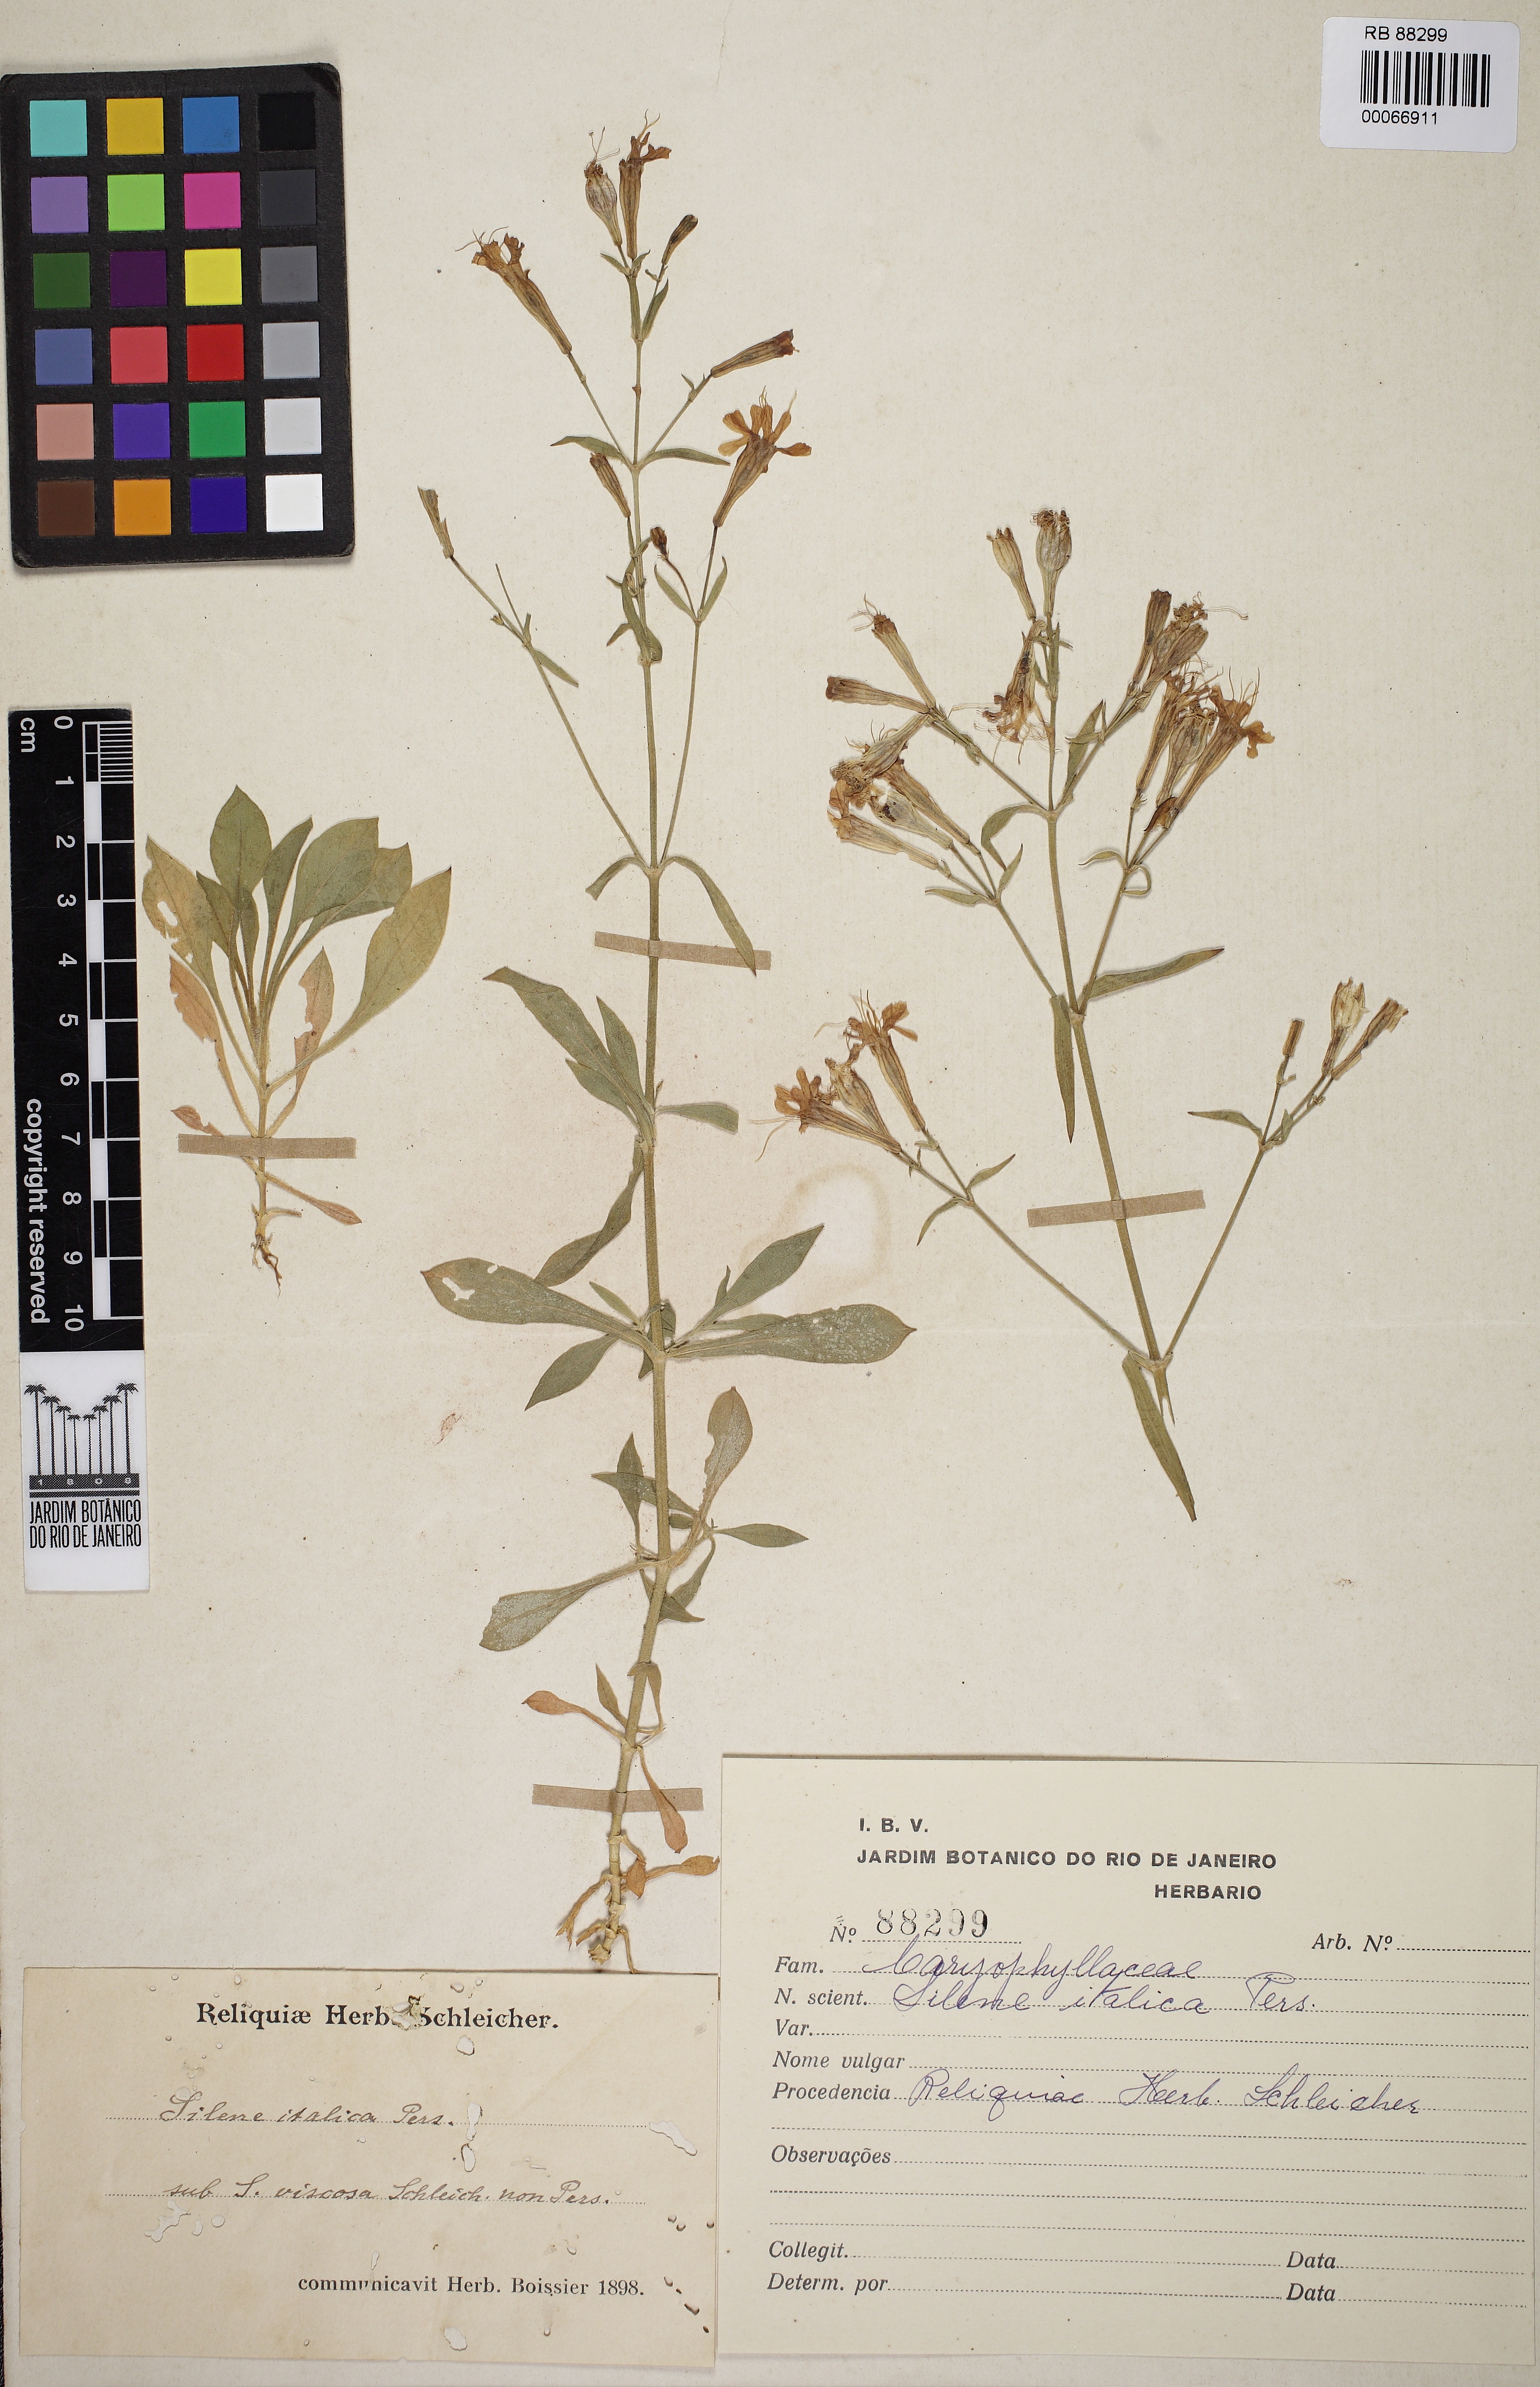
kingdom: Plantae
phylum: Tracheophyta
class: Magnoliopsida
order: Caryophyllales
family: Caryophyllaceae
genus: Silene
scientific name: Silene italica
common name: Italian catchfly
